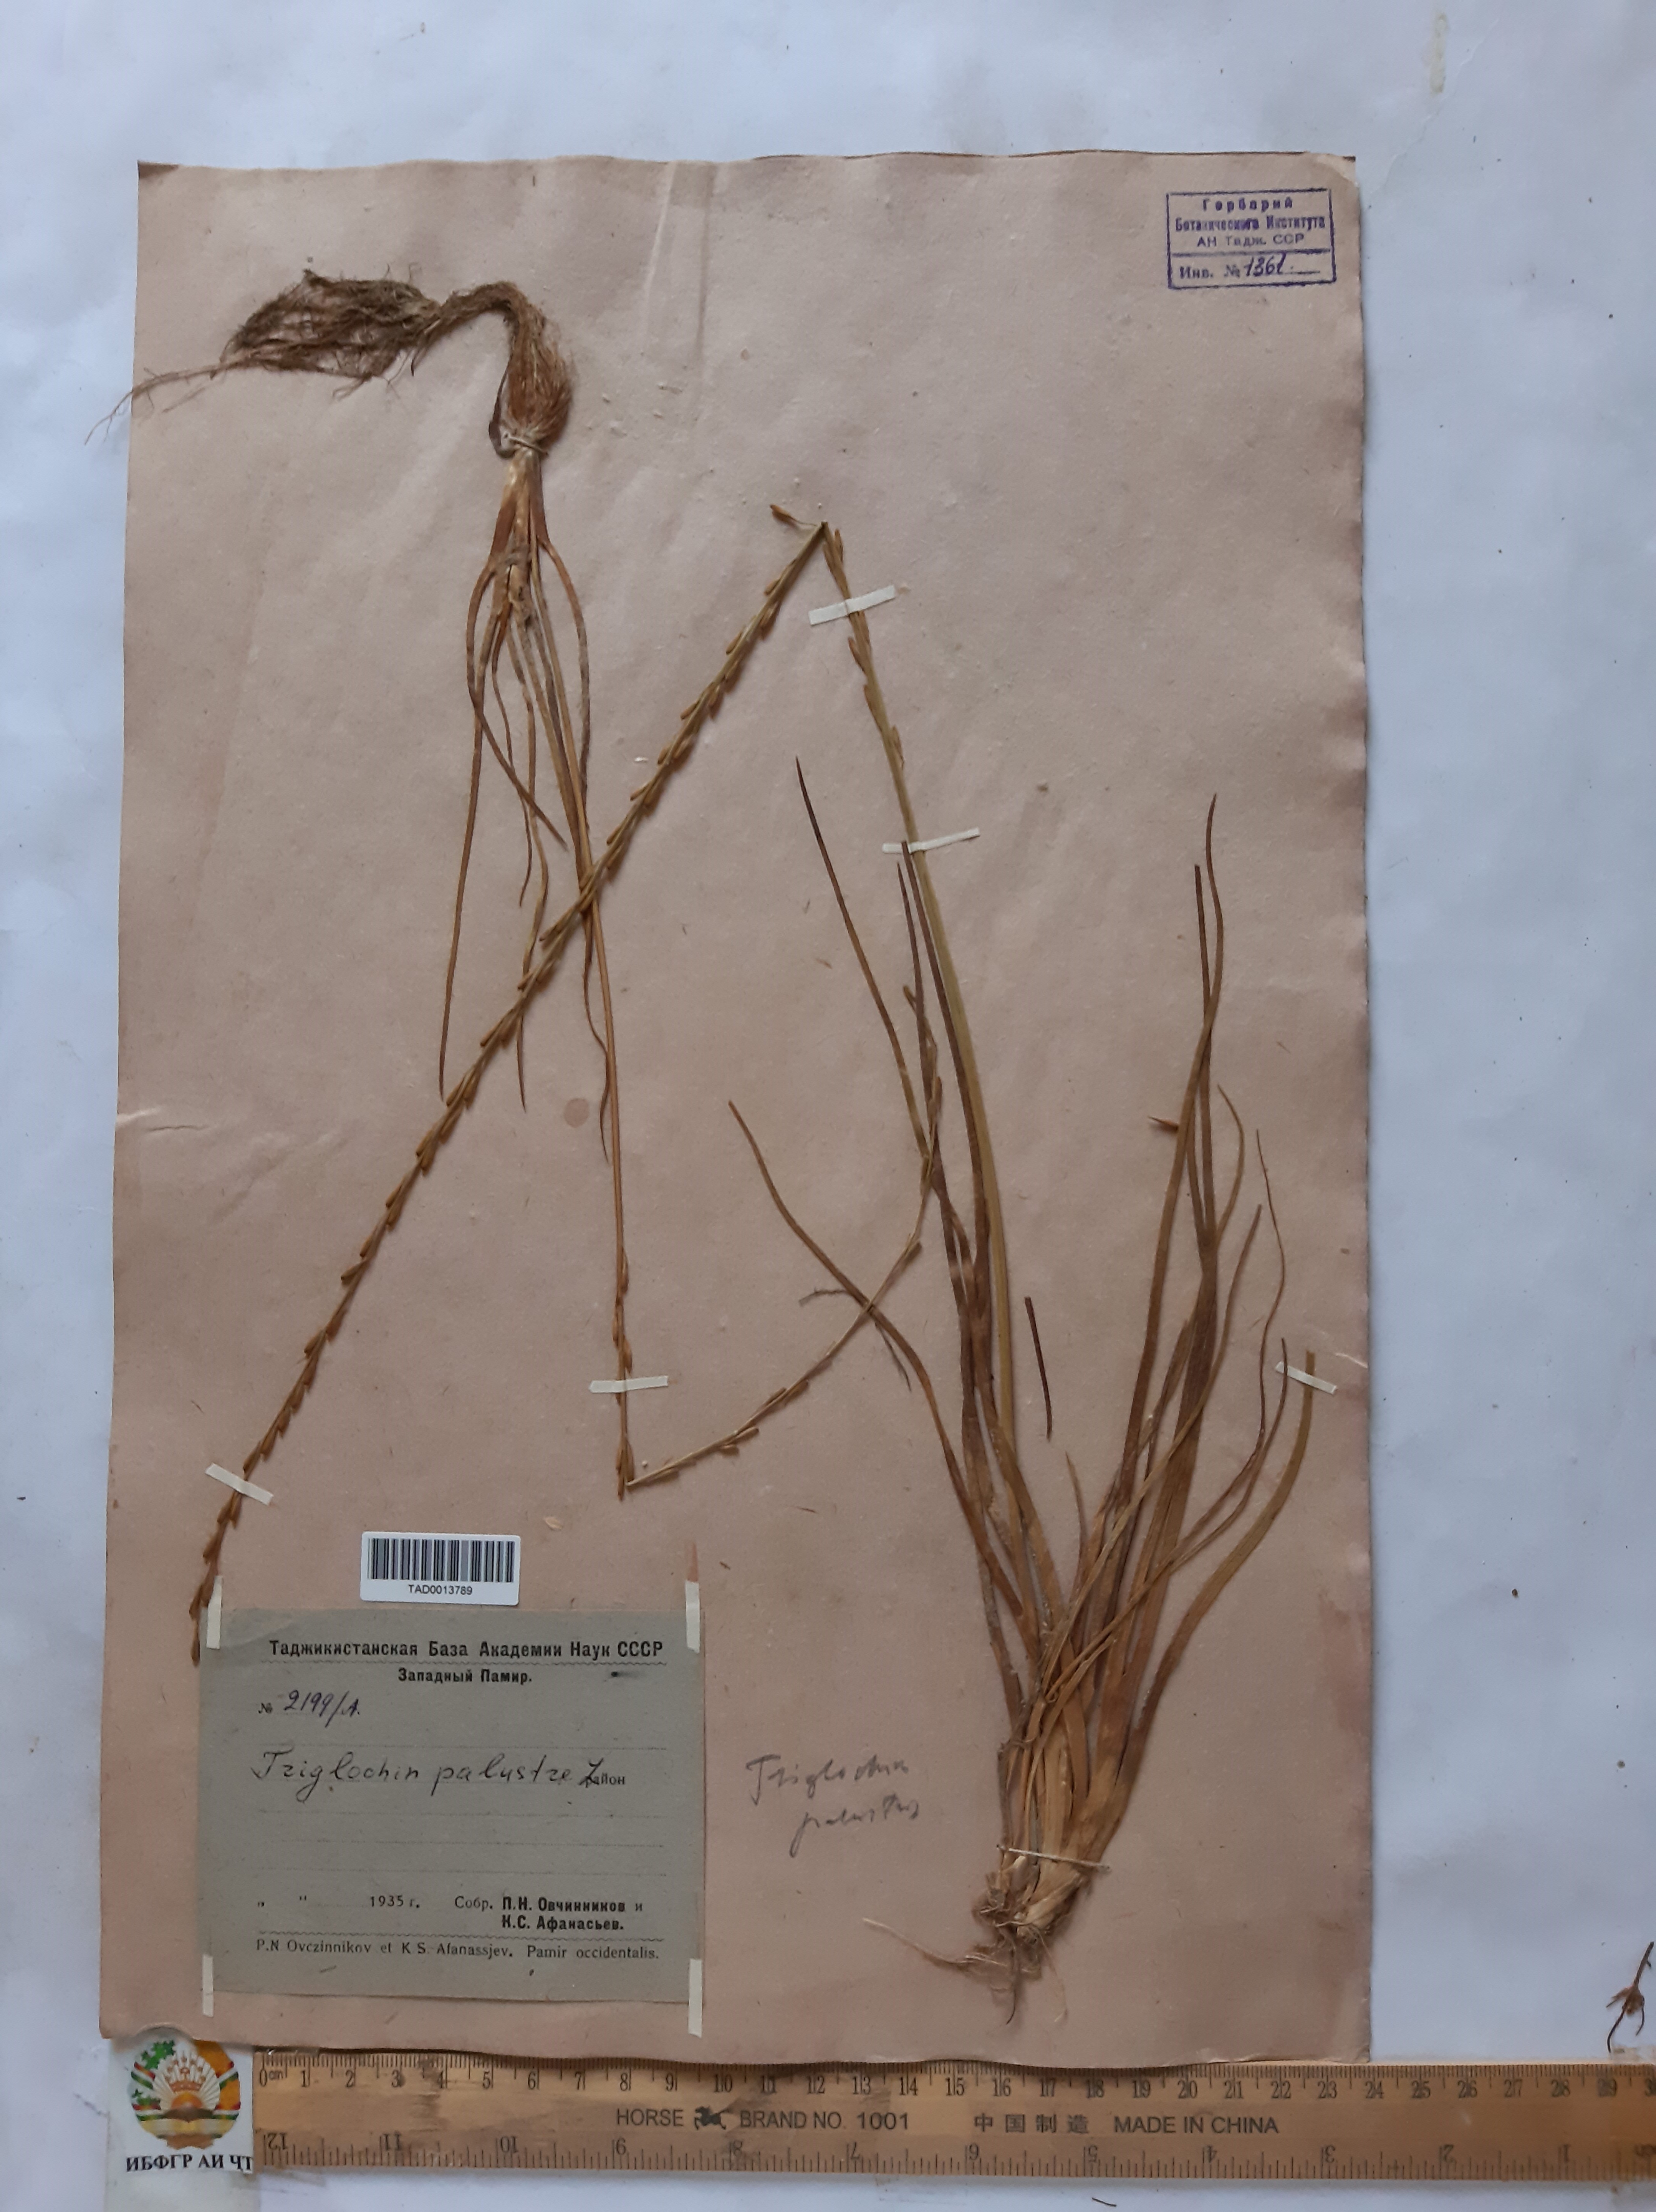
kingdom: Plantae
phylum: Tracheophyta
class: Liliopsida
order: Alismatales
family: Juncaginaceae
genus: Triglochin
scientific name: Triglochin palustris
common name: Marsh arrowgrass
